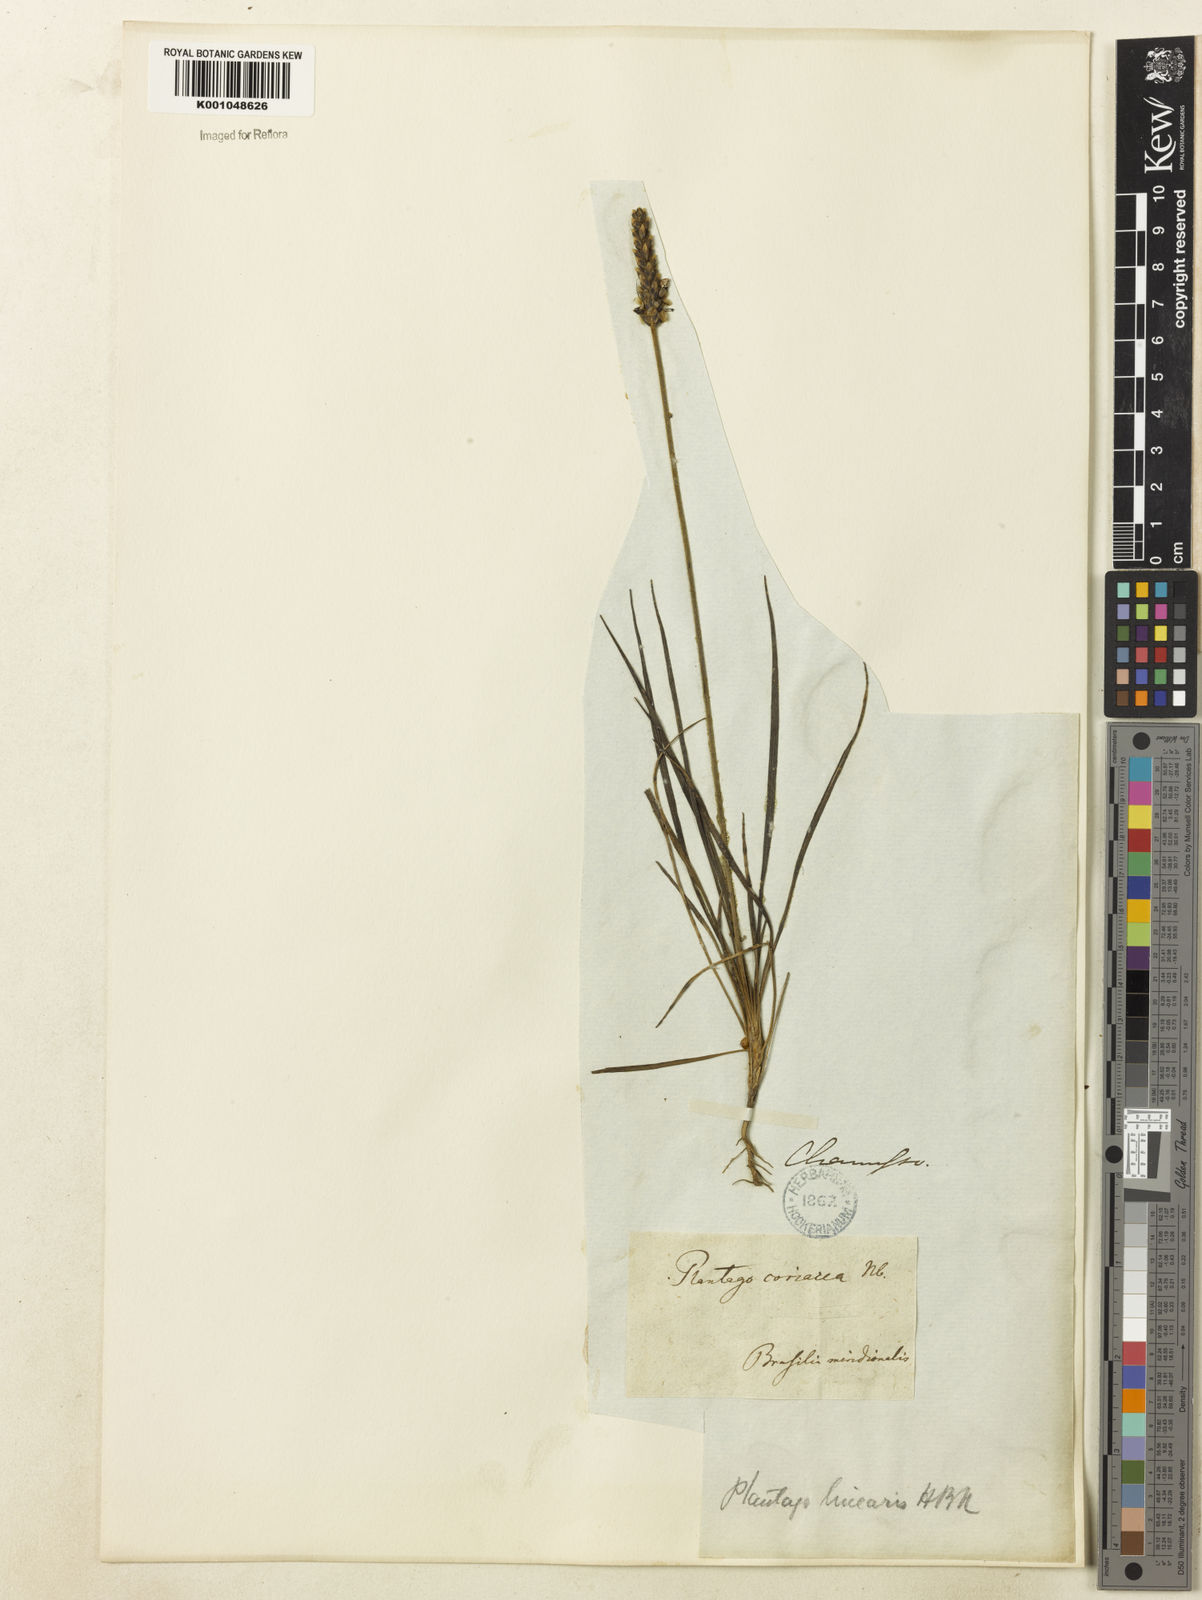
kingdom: Plantae
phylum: Tracheophyta
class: Magnoliopsida
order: Lamiales
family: Plantaginaceae
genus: Plantago
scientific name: Plantago brasiliensis
